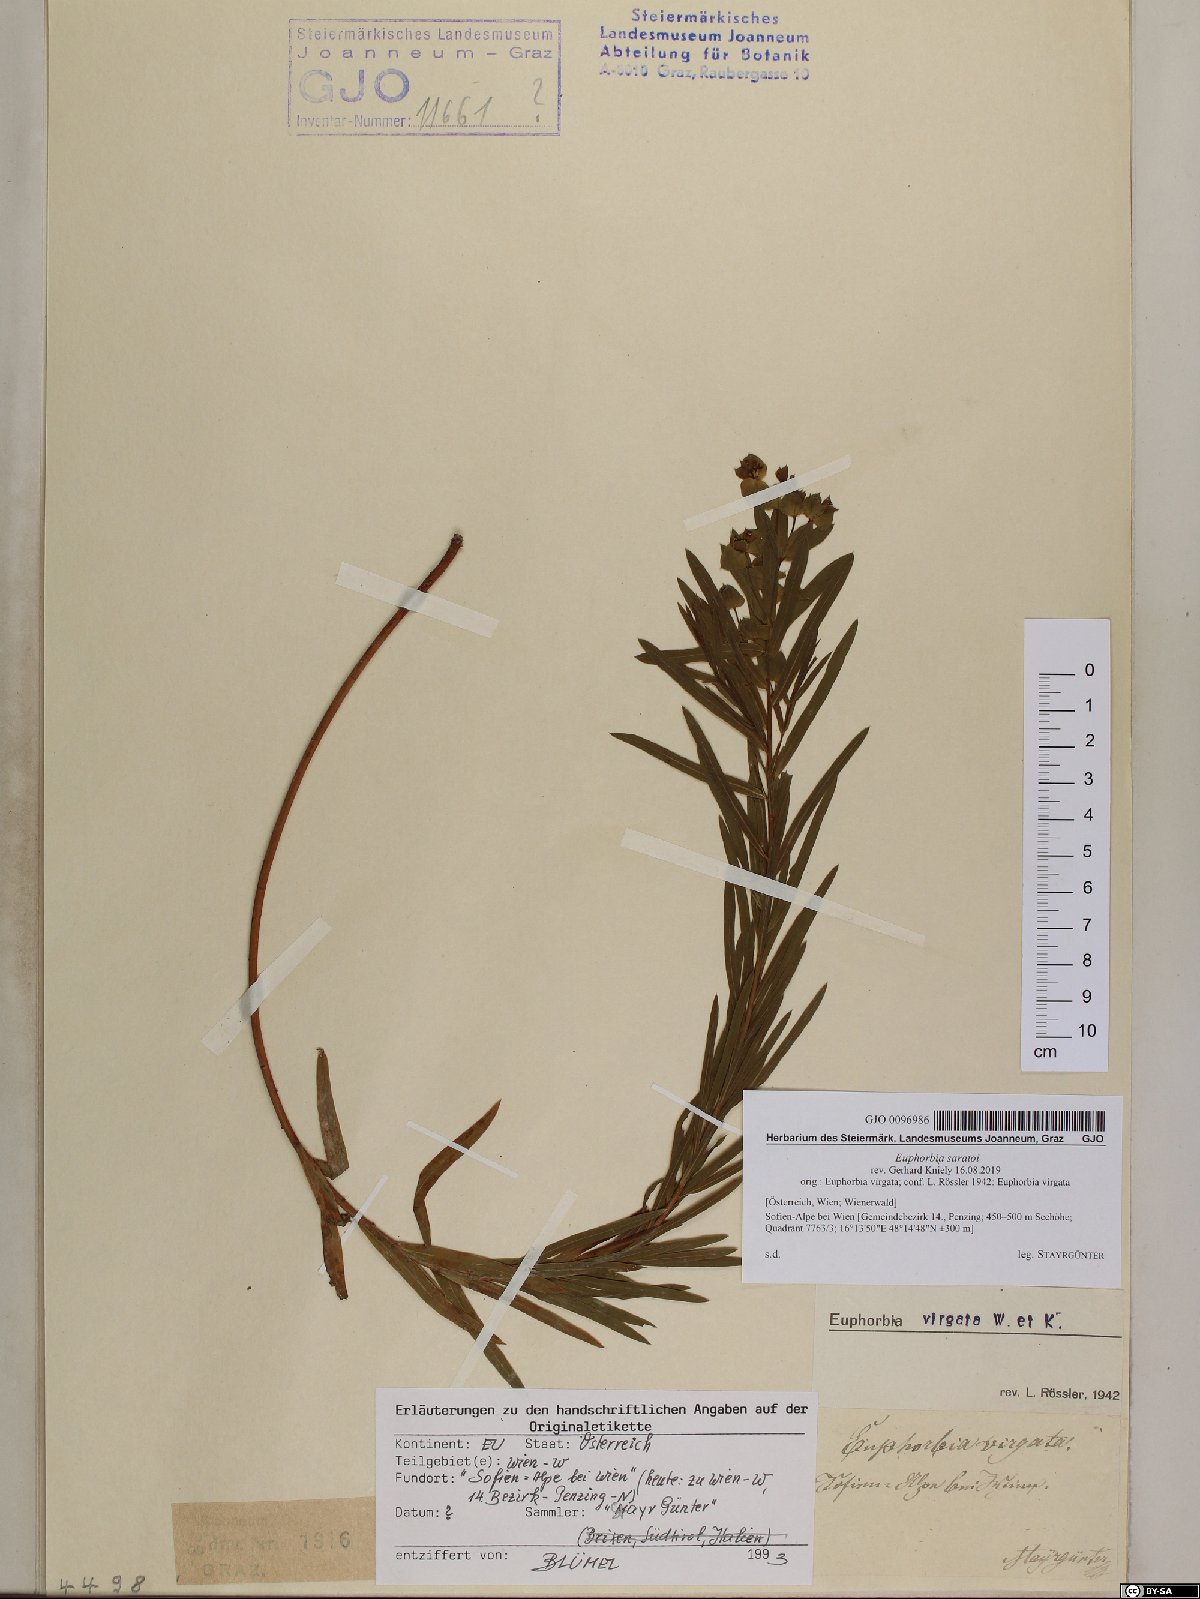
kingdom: Plantae
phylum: Tracheophyta
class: Magnoliopsida
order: Malpighiales
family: Euphorbiaceae
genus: Euphorbia
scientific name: Euphorbia saratoi
